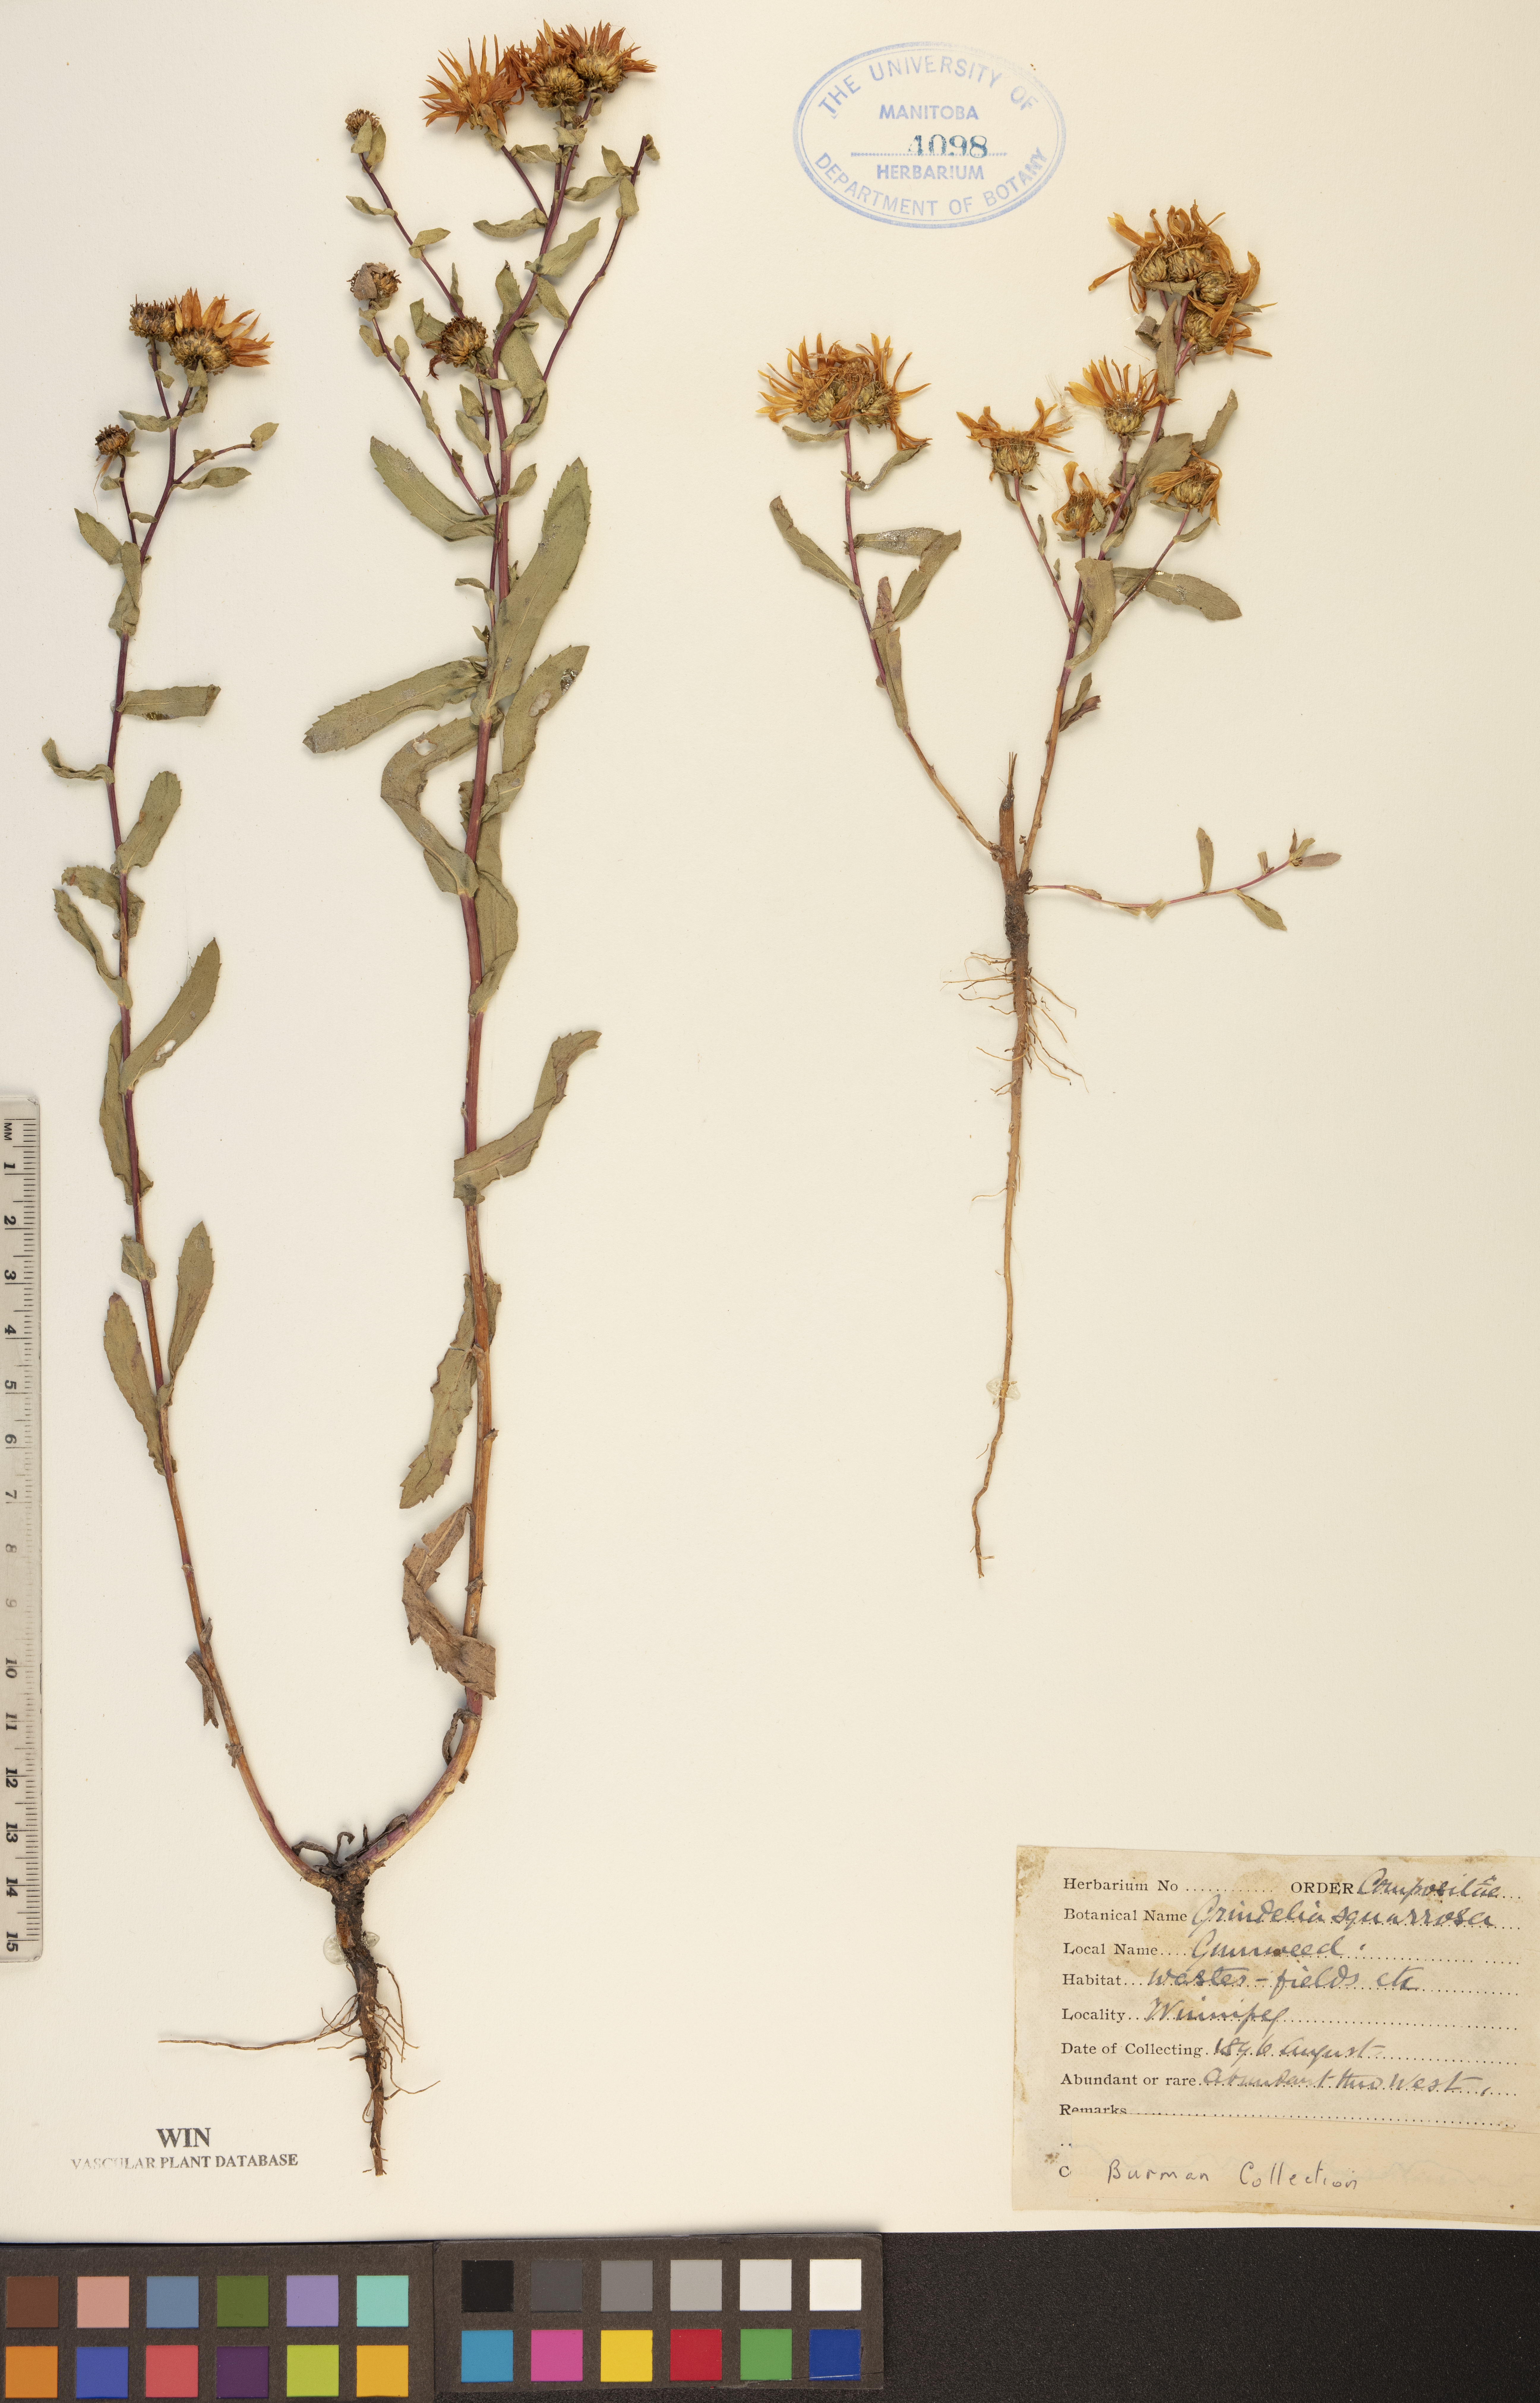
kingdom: Plantae
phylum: Tracheophyta
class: Magnoliopsida
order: Asterales
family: Asteraceae
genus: Grindelia
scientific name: Grindelia squarrosa
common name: Curly-cup gumweed
